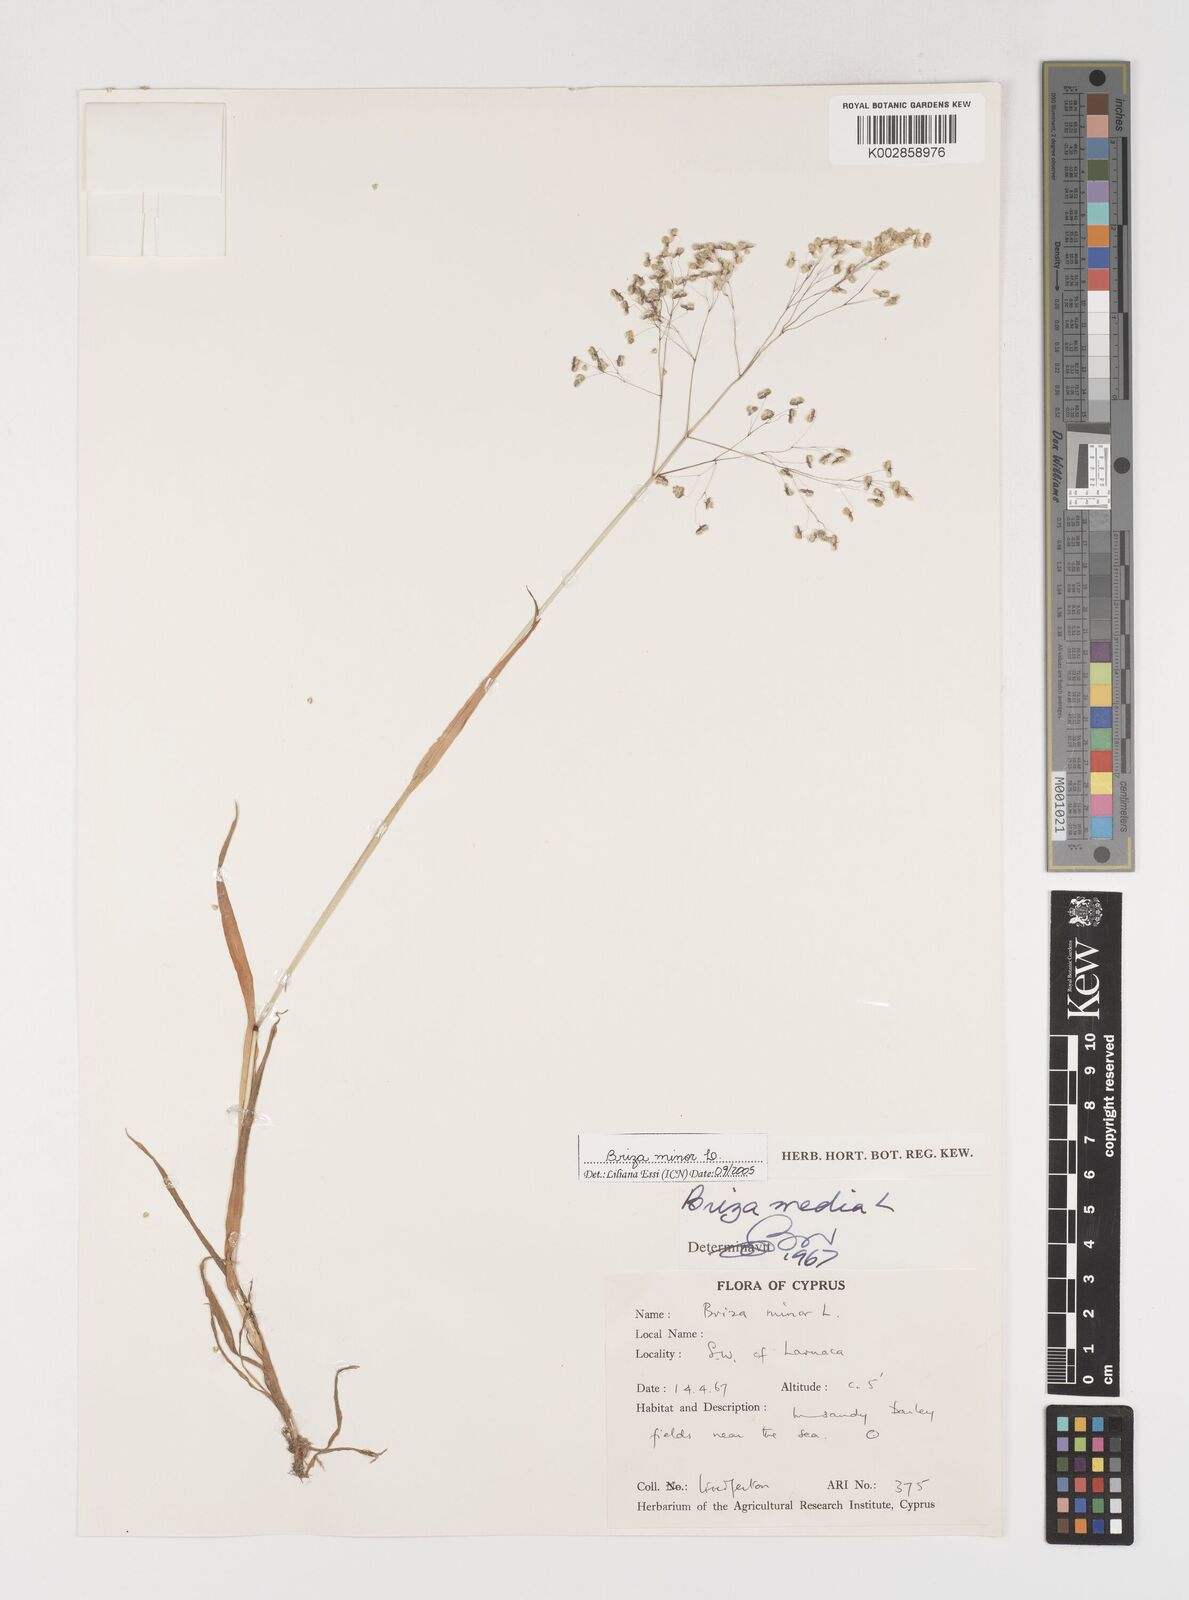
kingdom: Plantae
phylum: Tracheophyta
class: Liliopsida
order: Poales
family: Poaceae
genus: Briza
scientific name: Briza minor
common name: Lesser quaking-grass
